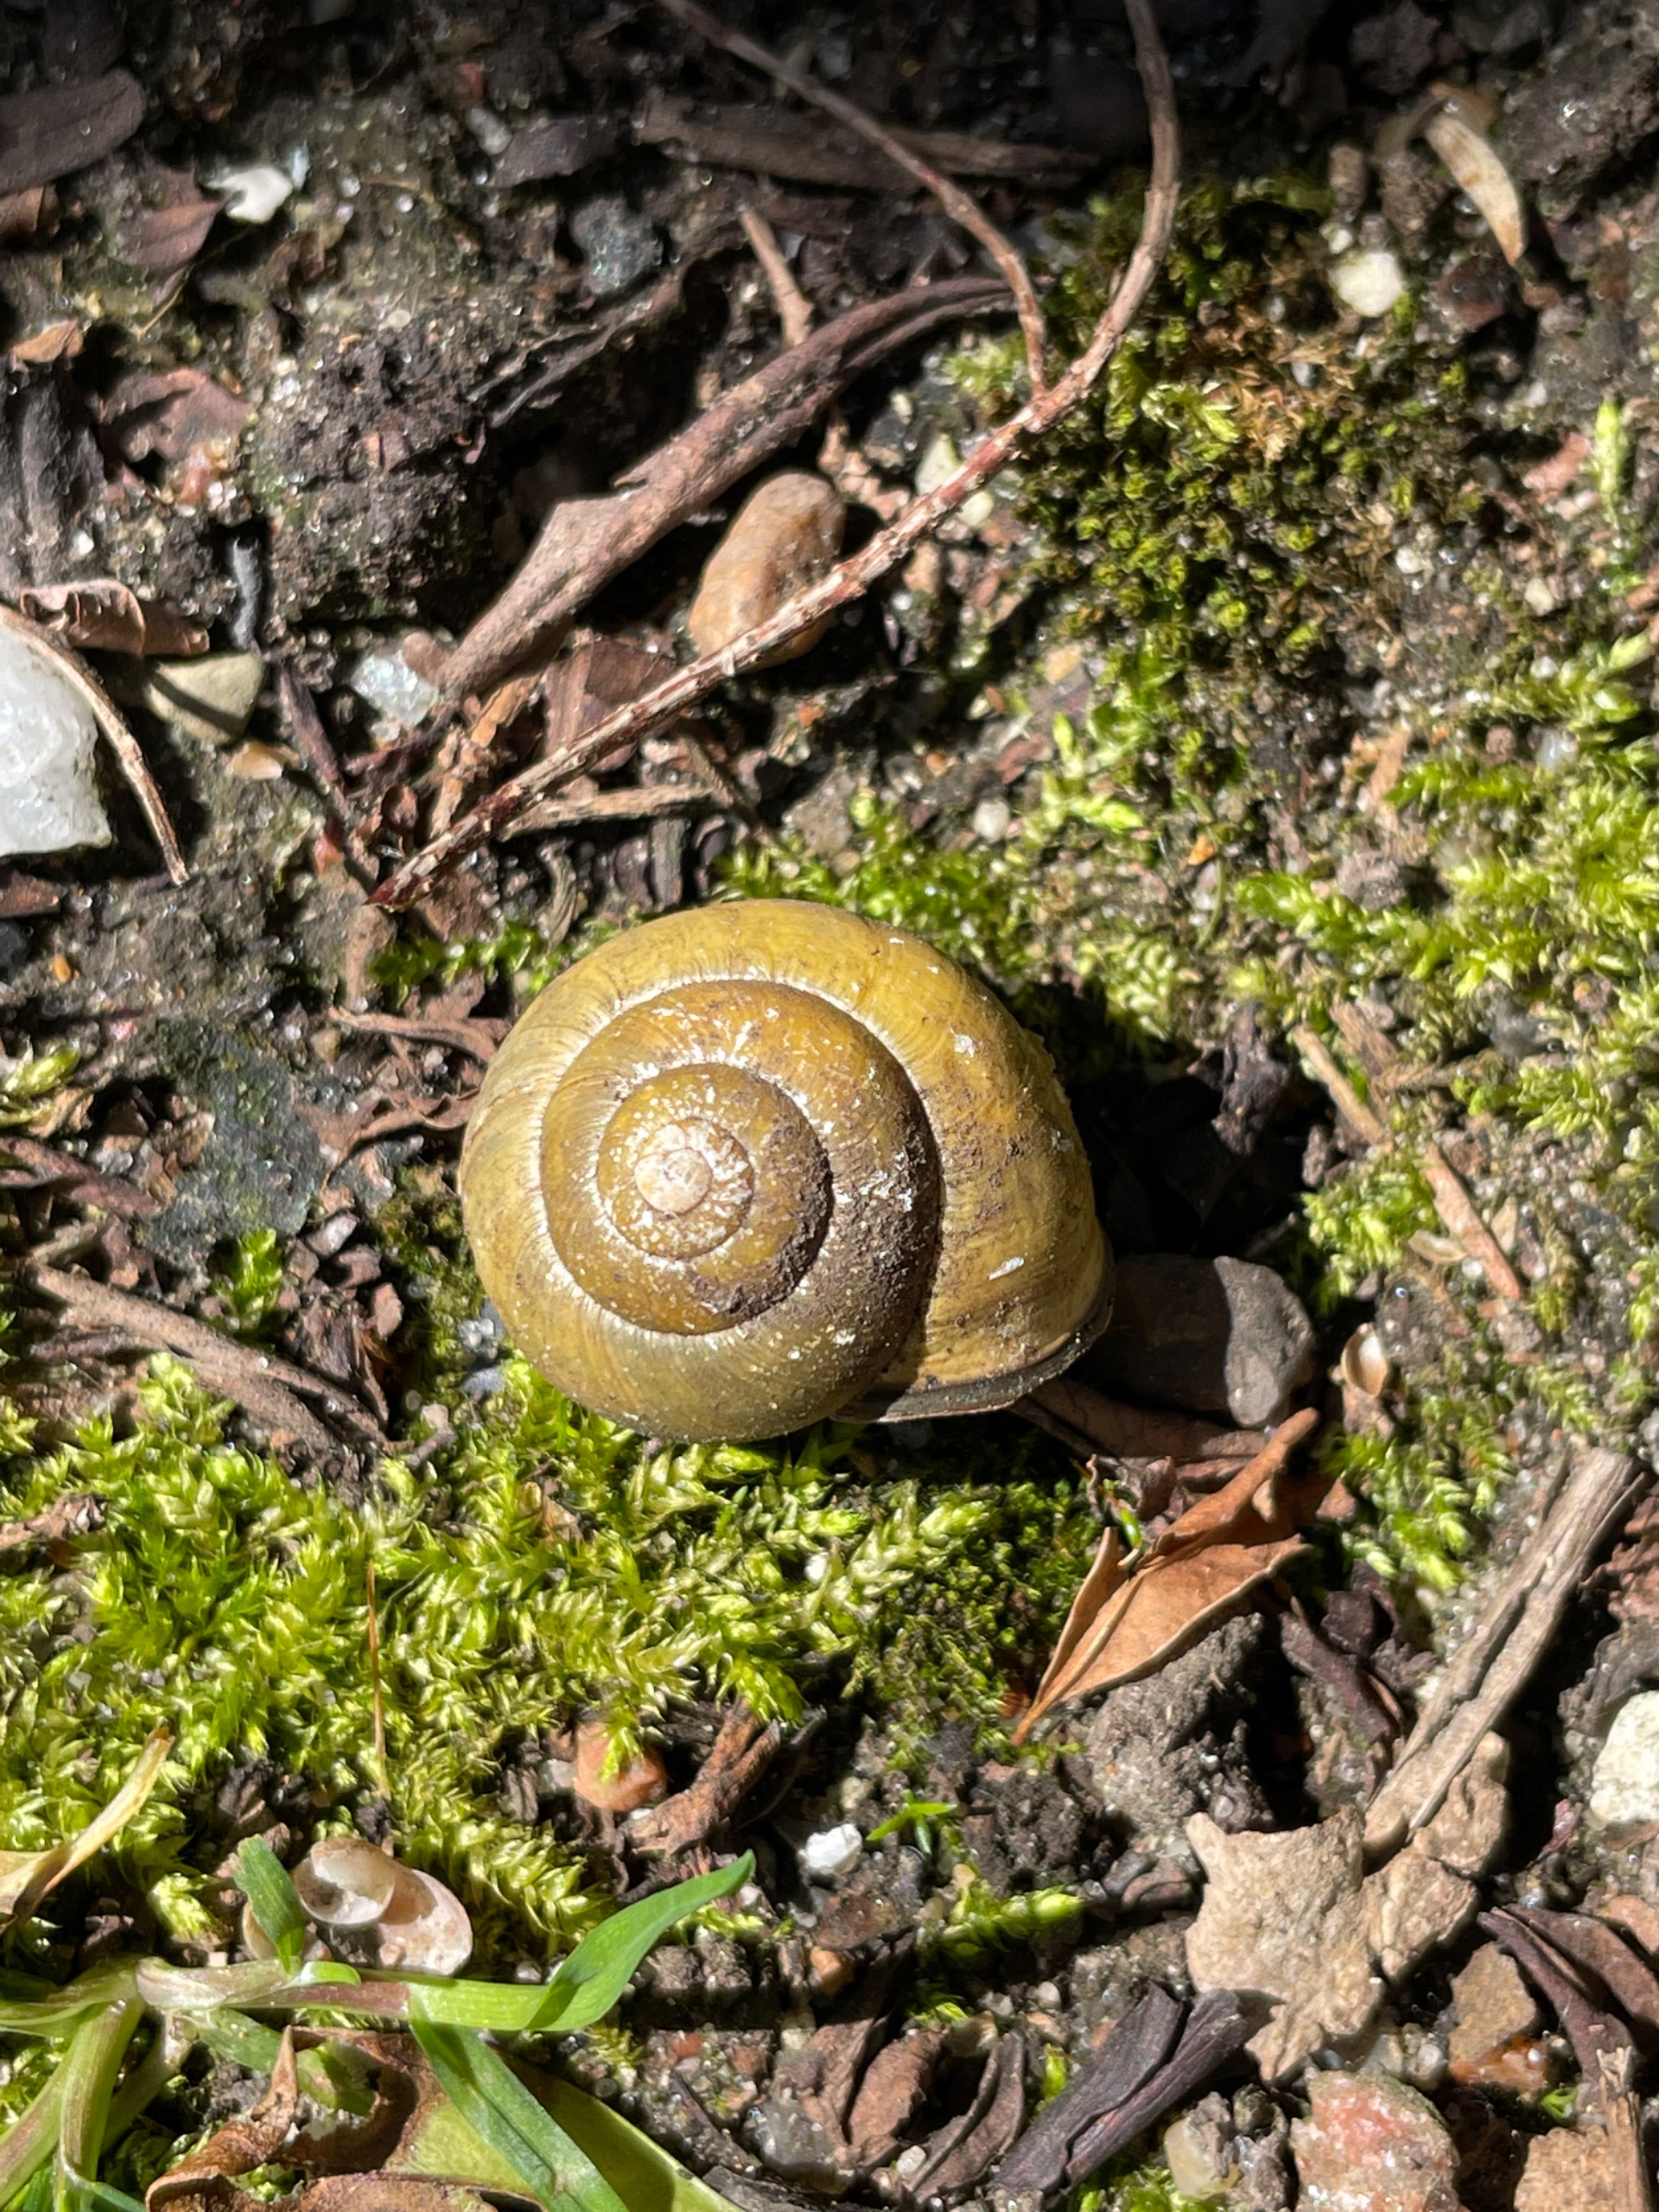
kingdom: Animalia
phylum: Mollusca
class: Gastropoda
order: Stylommatophora
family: Helicidae
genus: Cepaea
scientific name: Cepaea nemoralis
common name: Lundsnegl
